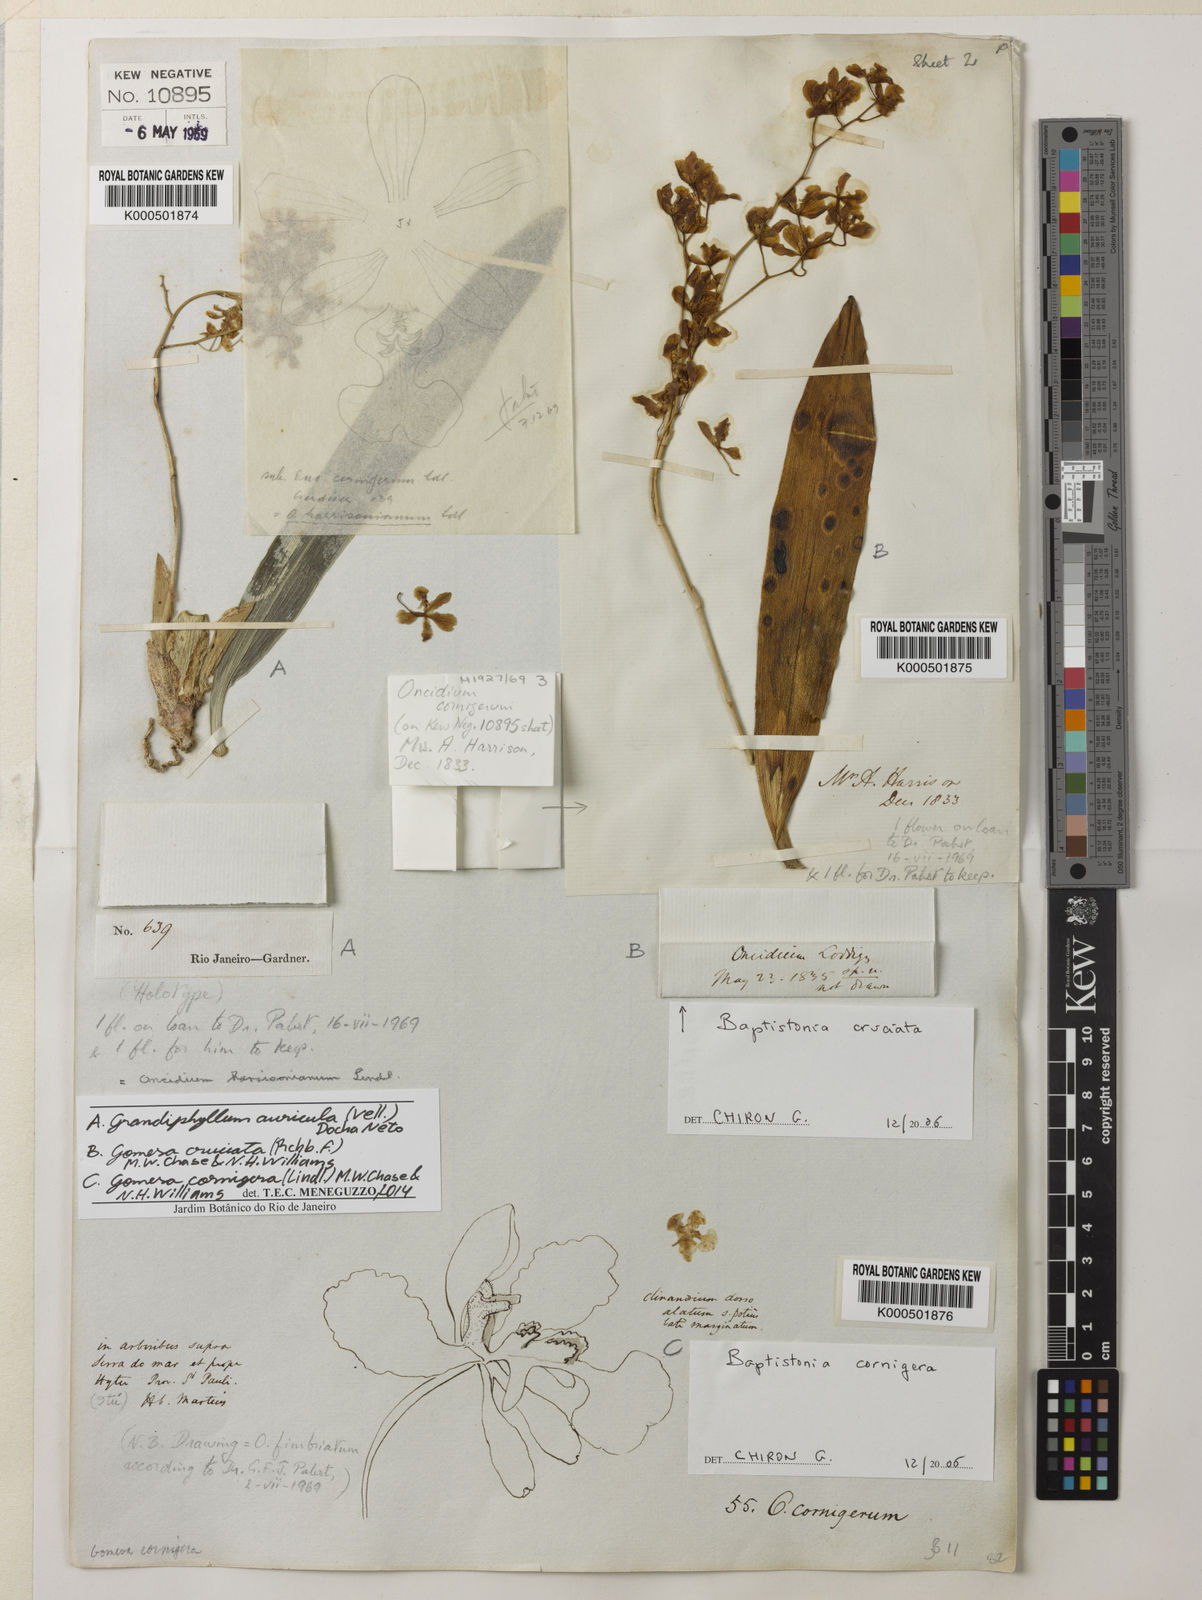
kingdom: Plantae
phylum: Tracheophyta
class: Liliopsida
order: Asparagales
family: Orchidaceae
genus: Grandiphyllum
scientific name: Grandiphyllum auricula
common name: Mule-ear orchid
